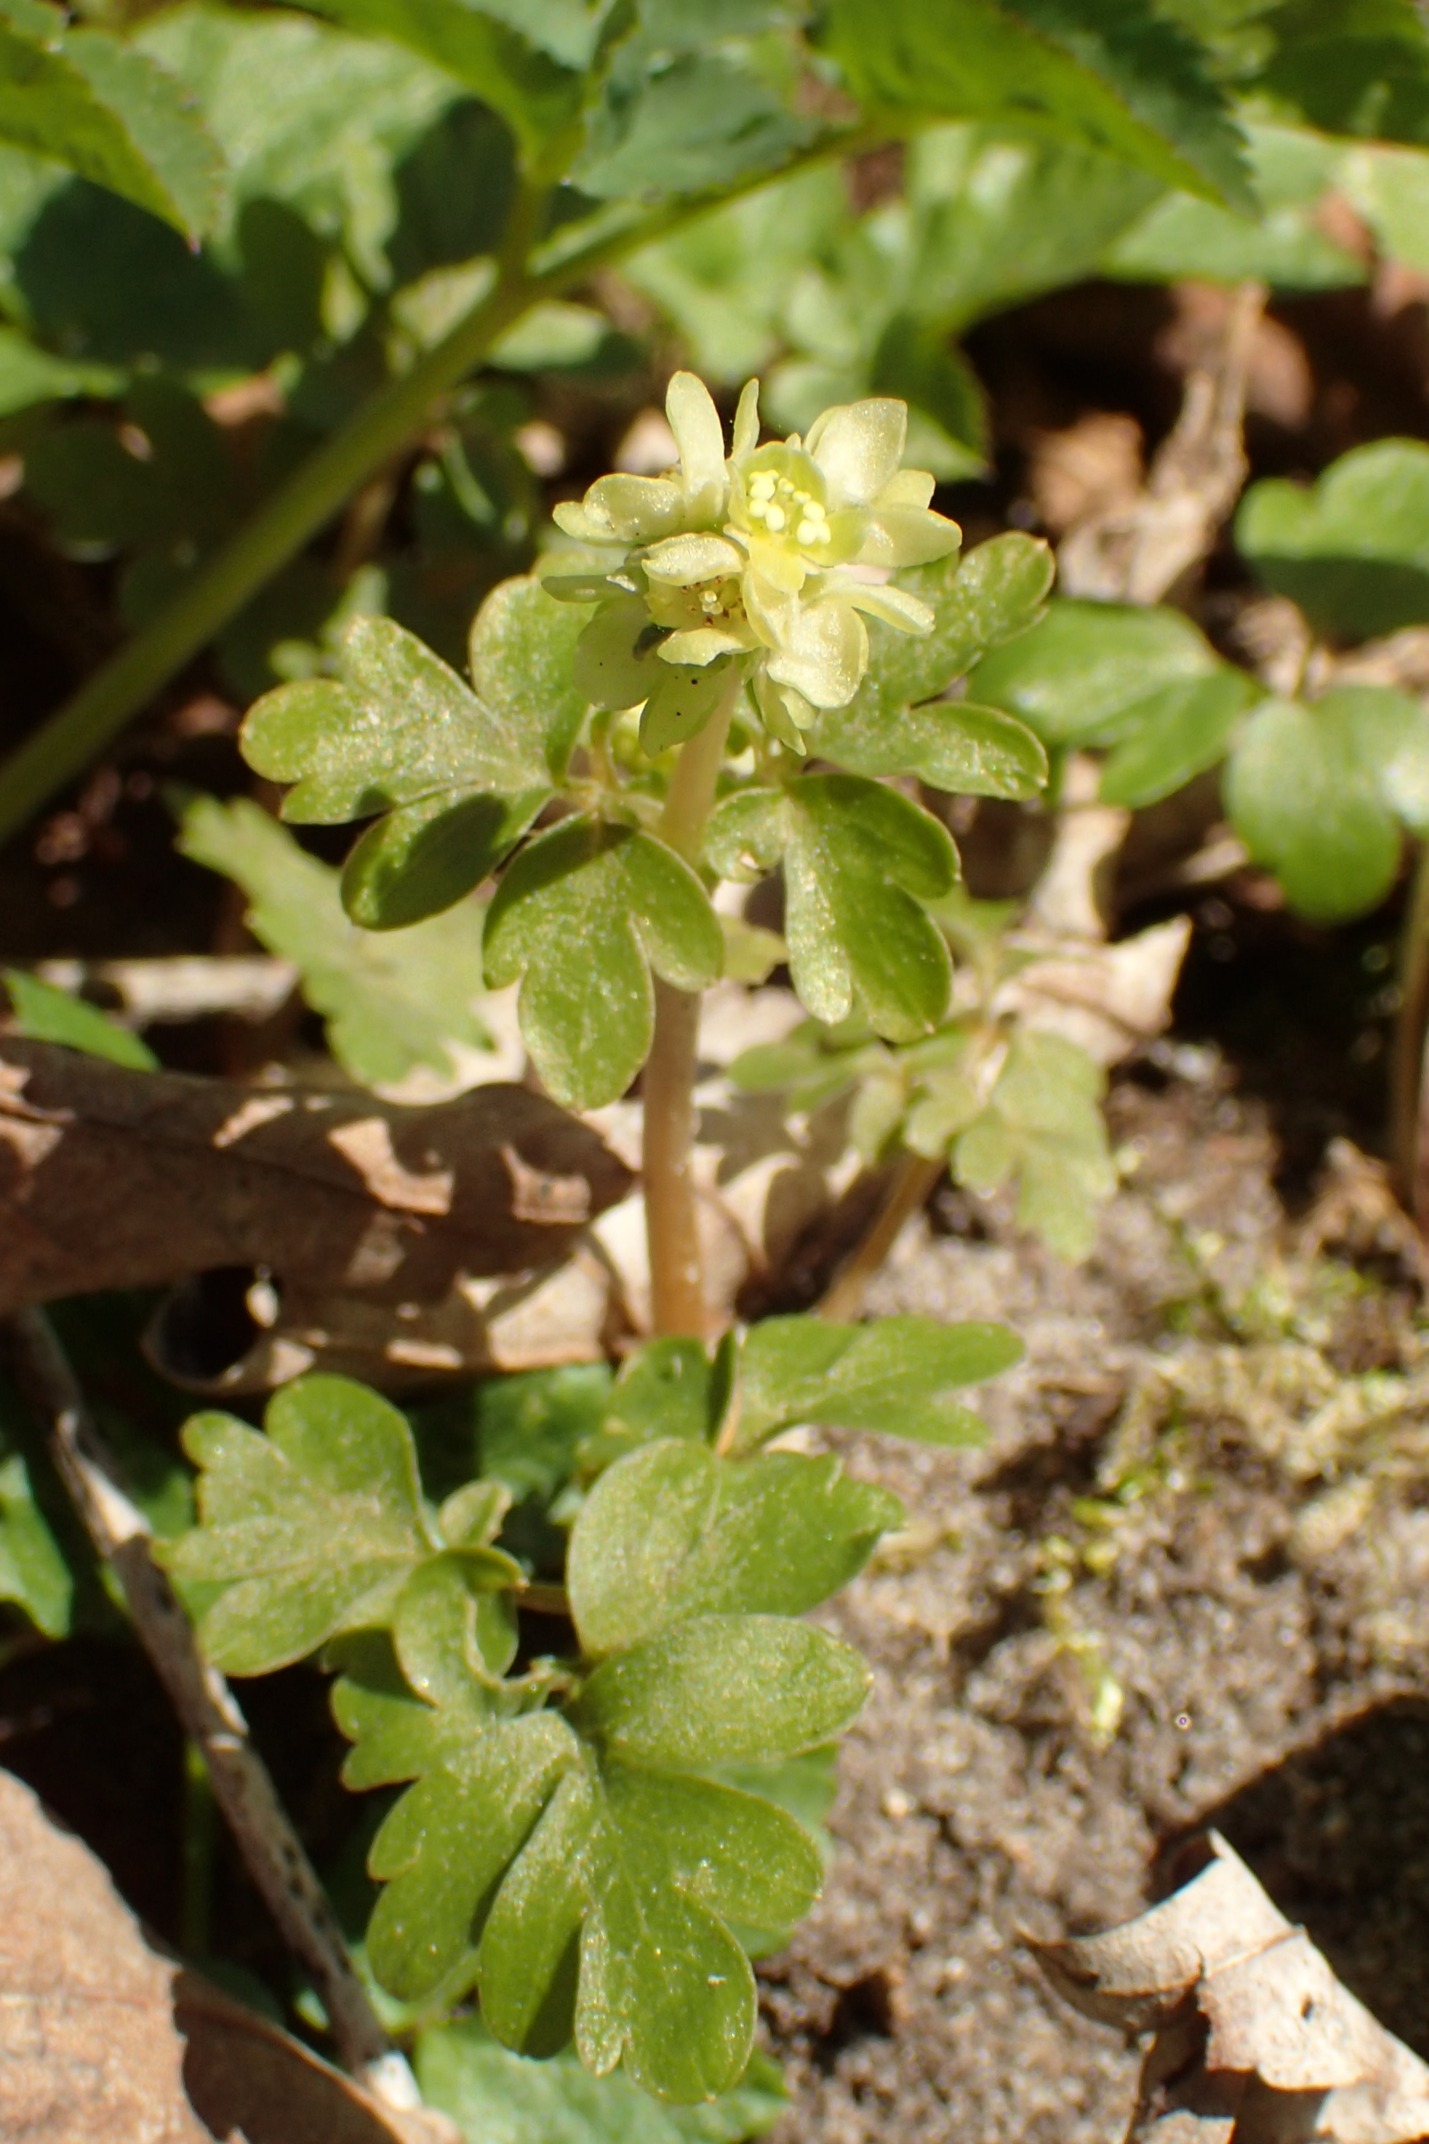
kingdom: Plantae
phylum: Tracheophyta
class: Magnoliopsida
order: Dipsacales
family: Viburnaceae
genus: Adoxa
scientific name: Adoxa moschatellina
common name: Desmerurt
